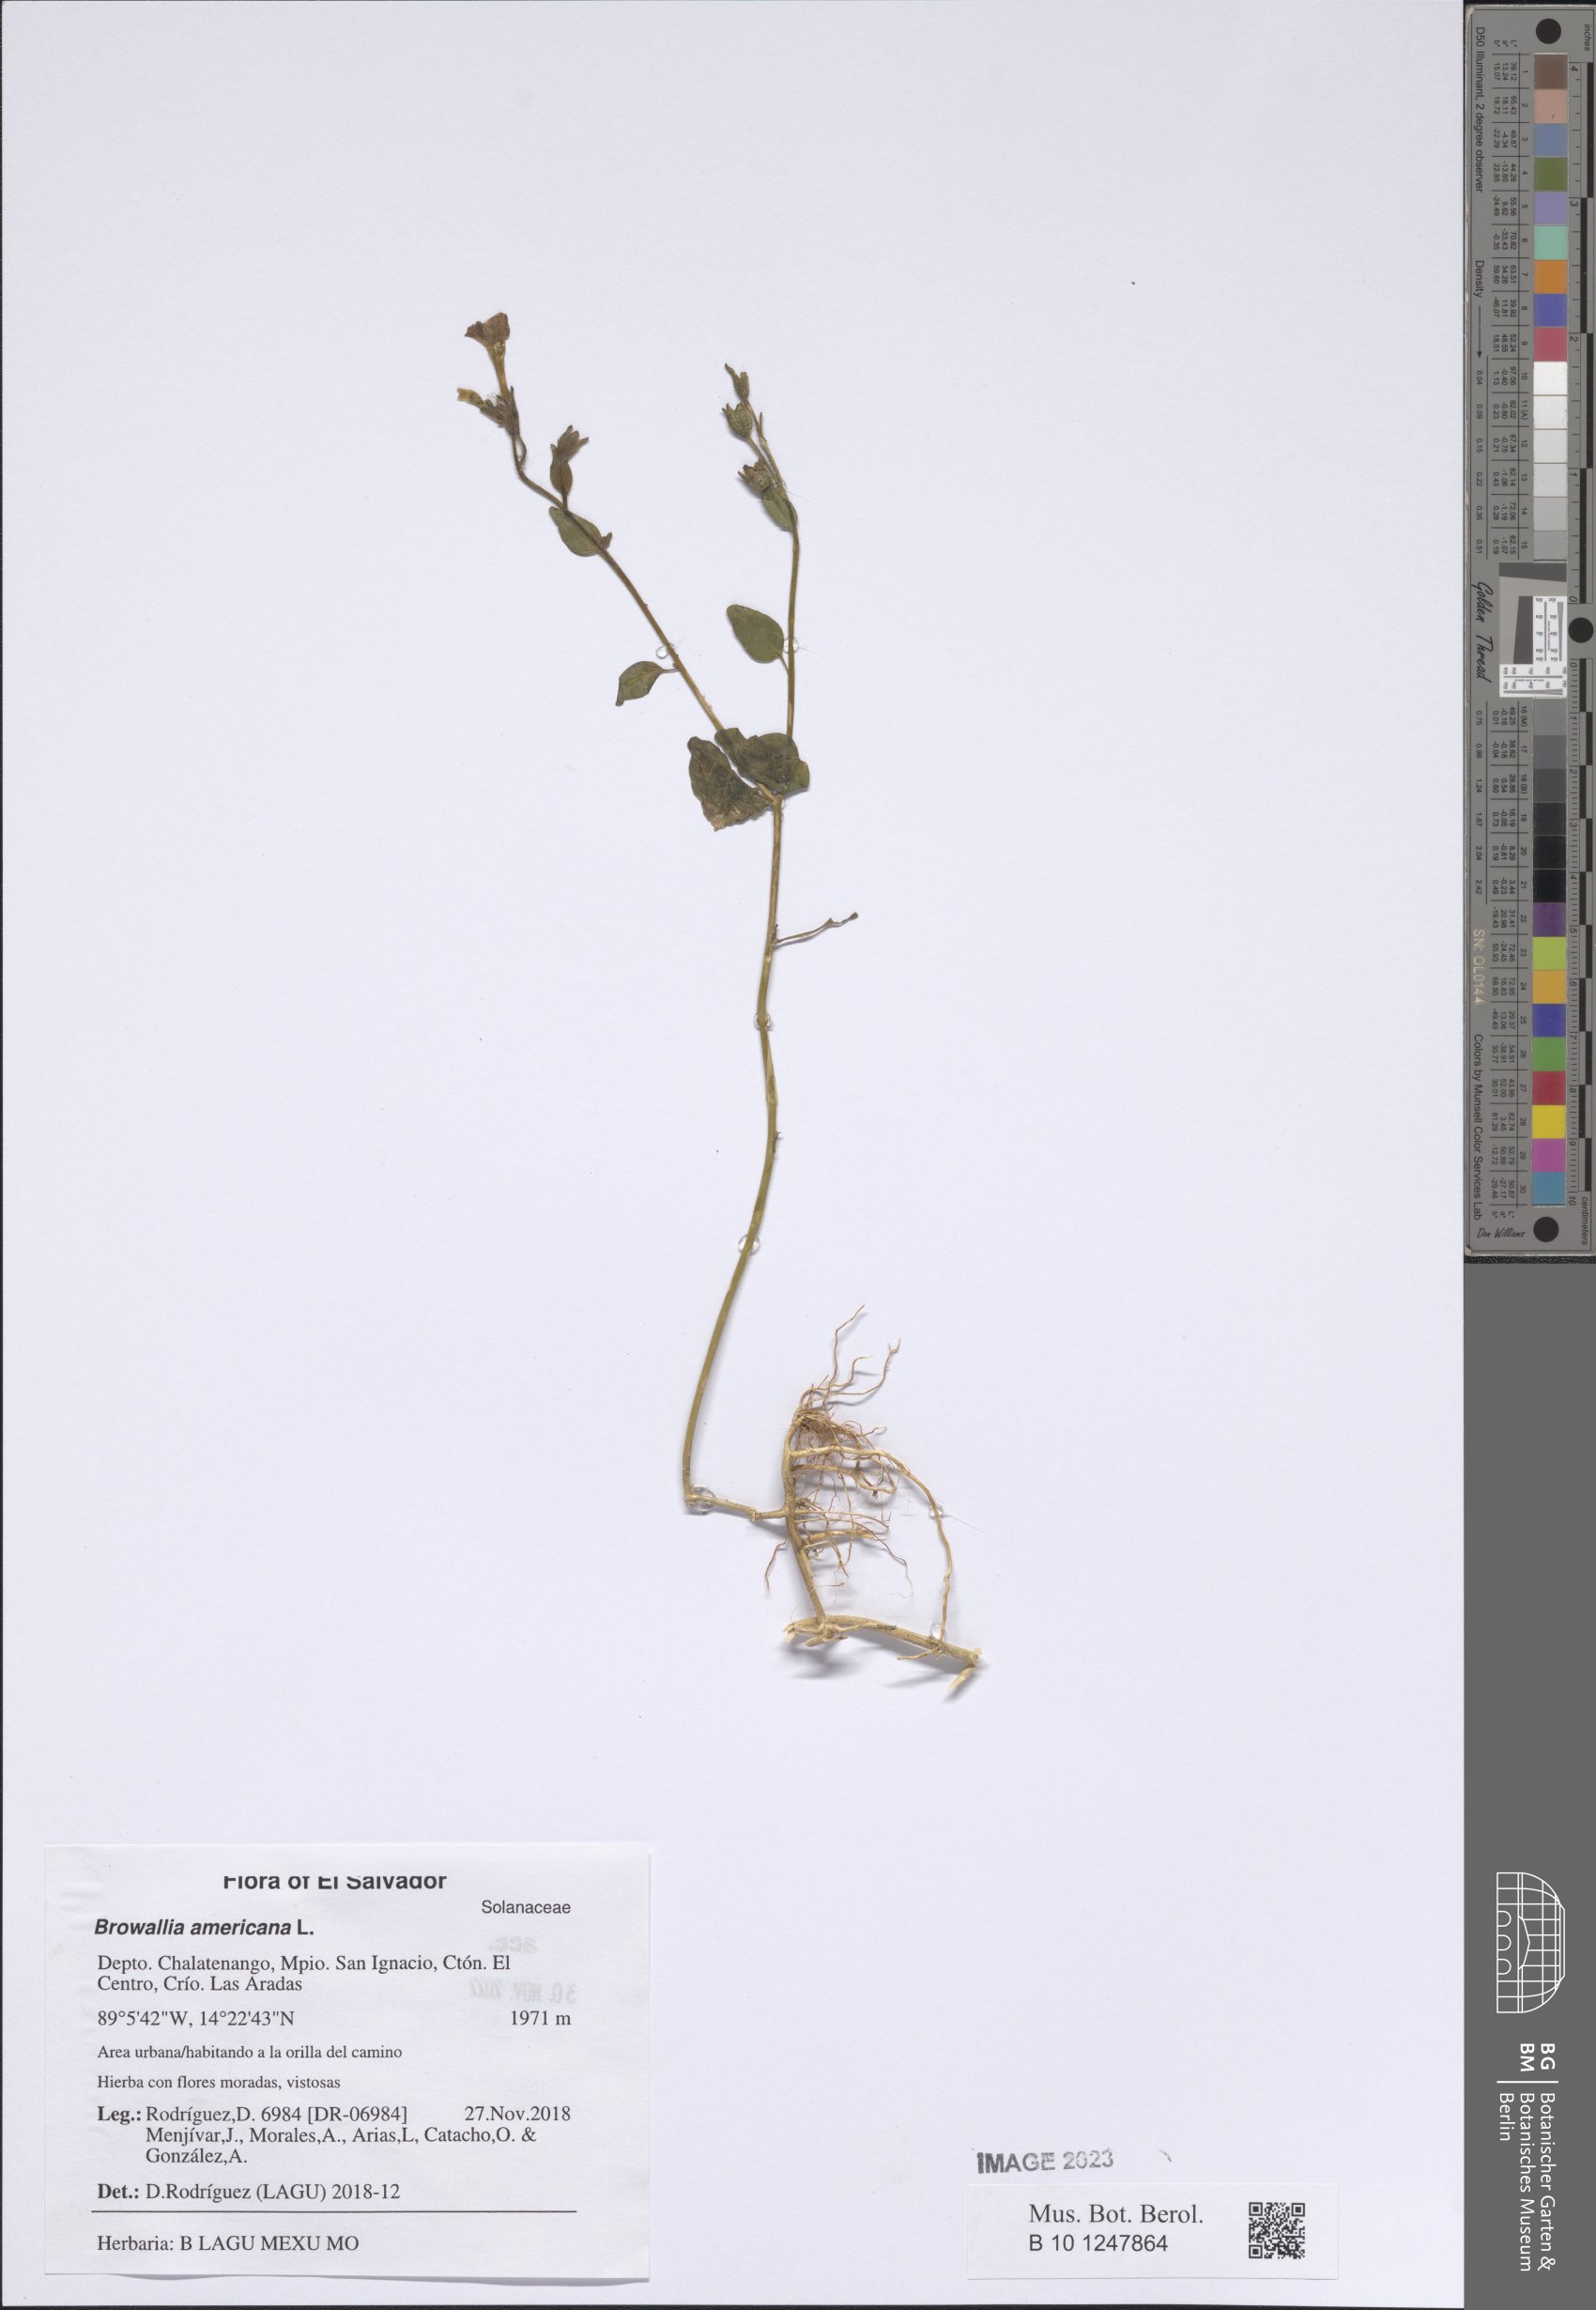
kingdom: Plantae
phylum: Tracheophyta
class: Magnoliopsida
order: Solanales
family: Solanaceae
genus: Browallia
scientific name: Browallia americana
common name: Jamaican forget-me-not
